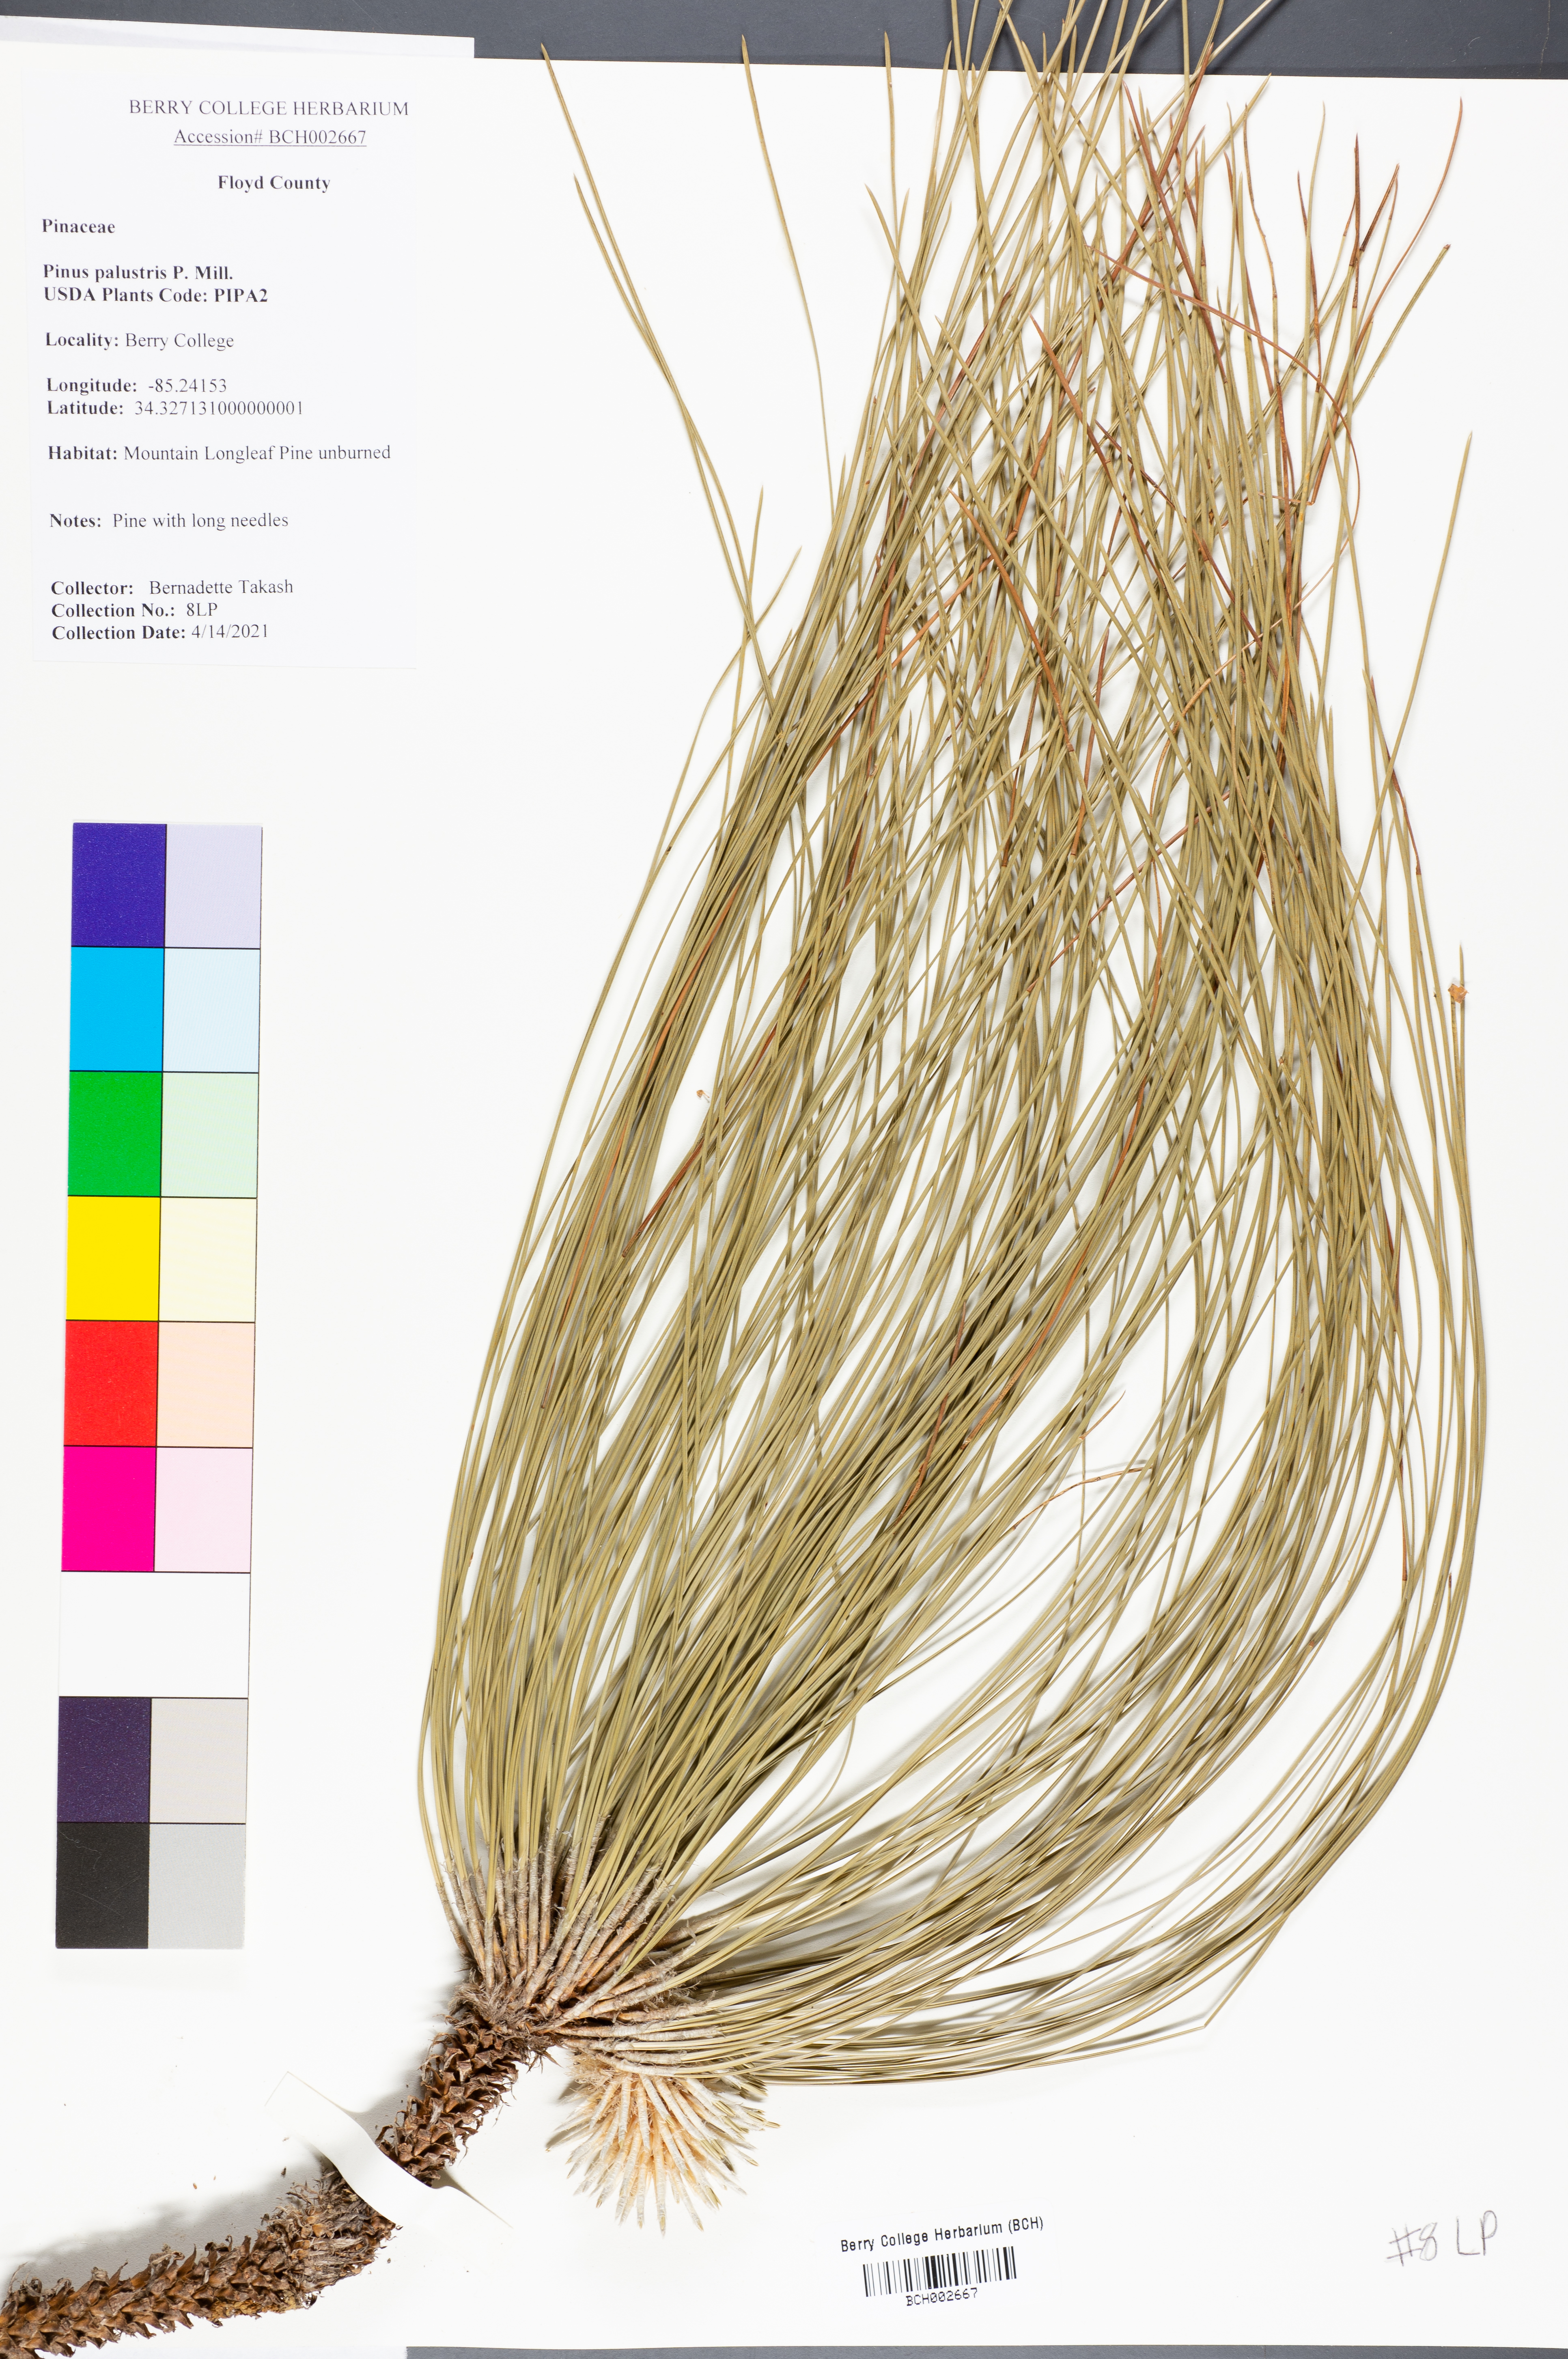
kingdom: Plantae
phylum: Tracheophyta
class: Pinopsida
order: Pinales
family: Pinaceae
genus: Pinus
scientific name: Pinus palustris
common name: Longleaf pine
